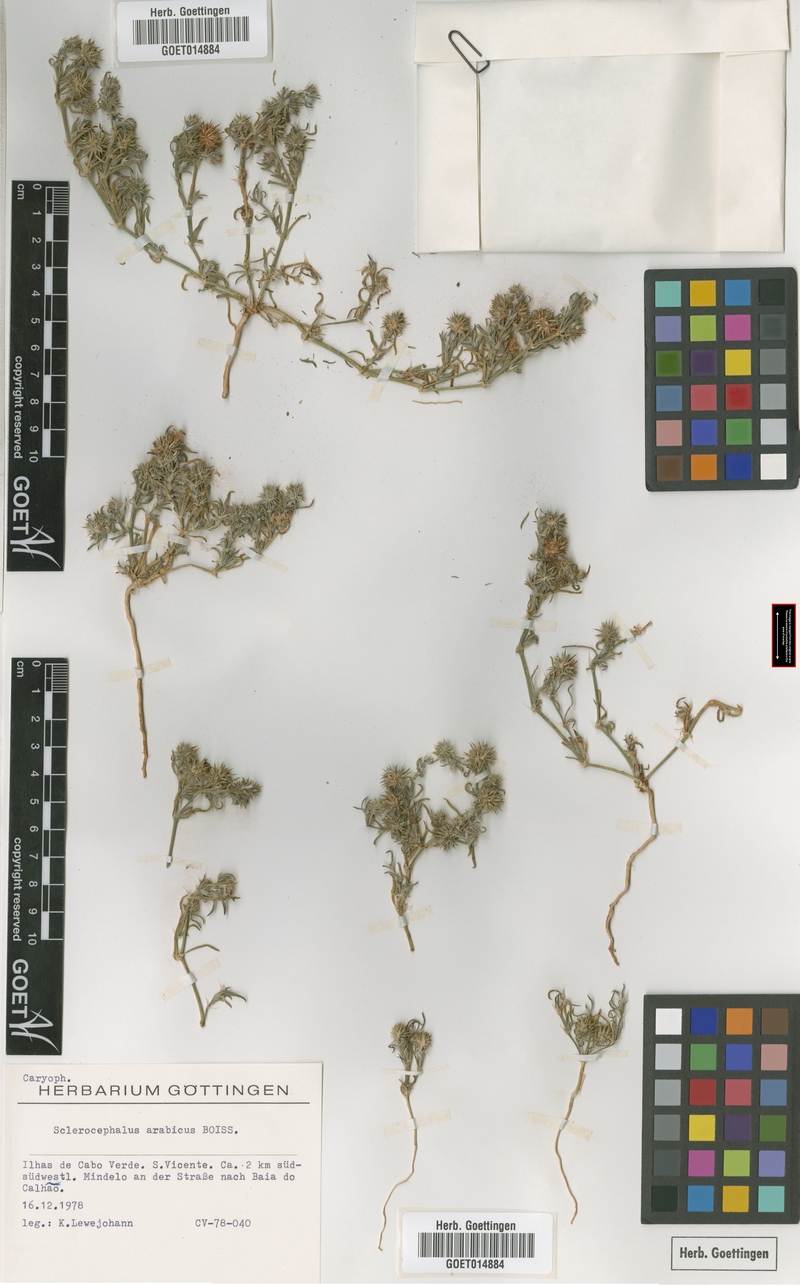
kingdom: Plantae
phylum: Tracheophyta
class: Magnoliopsida
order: Caryophyllales
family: Caryophyllaceae
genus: Gymnocarpos
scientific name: Gymnocarpos sclerocephalus
